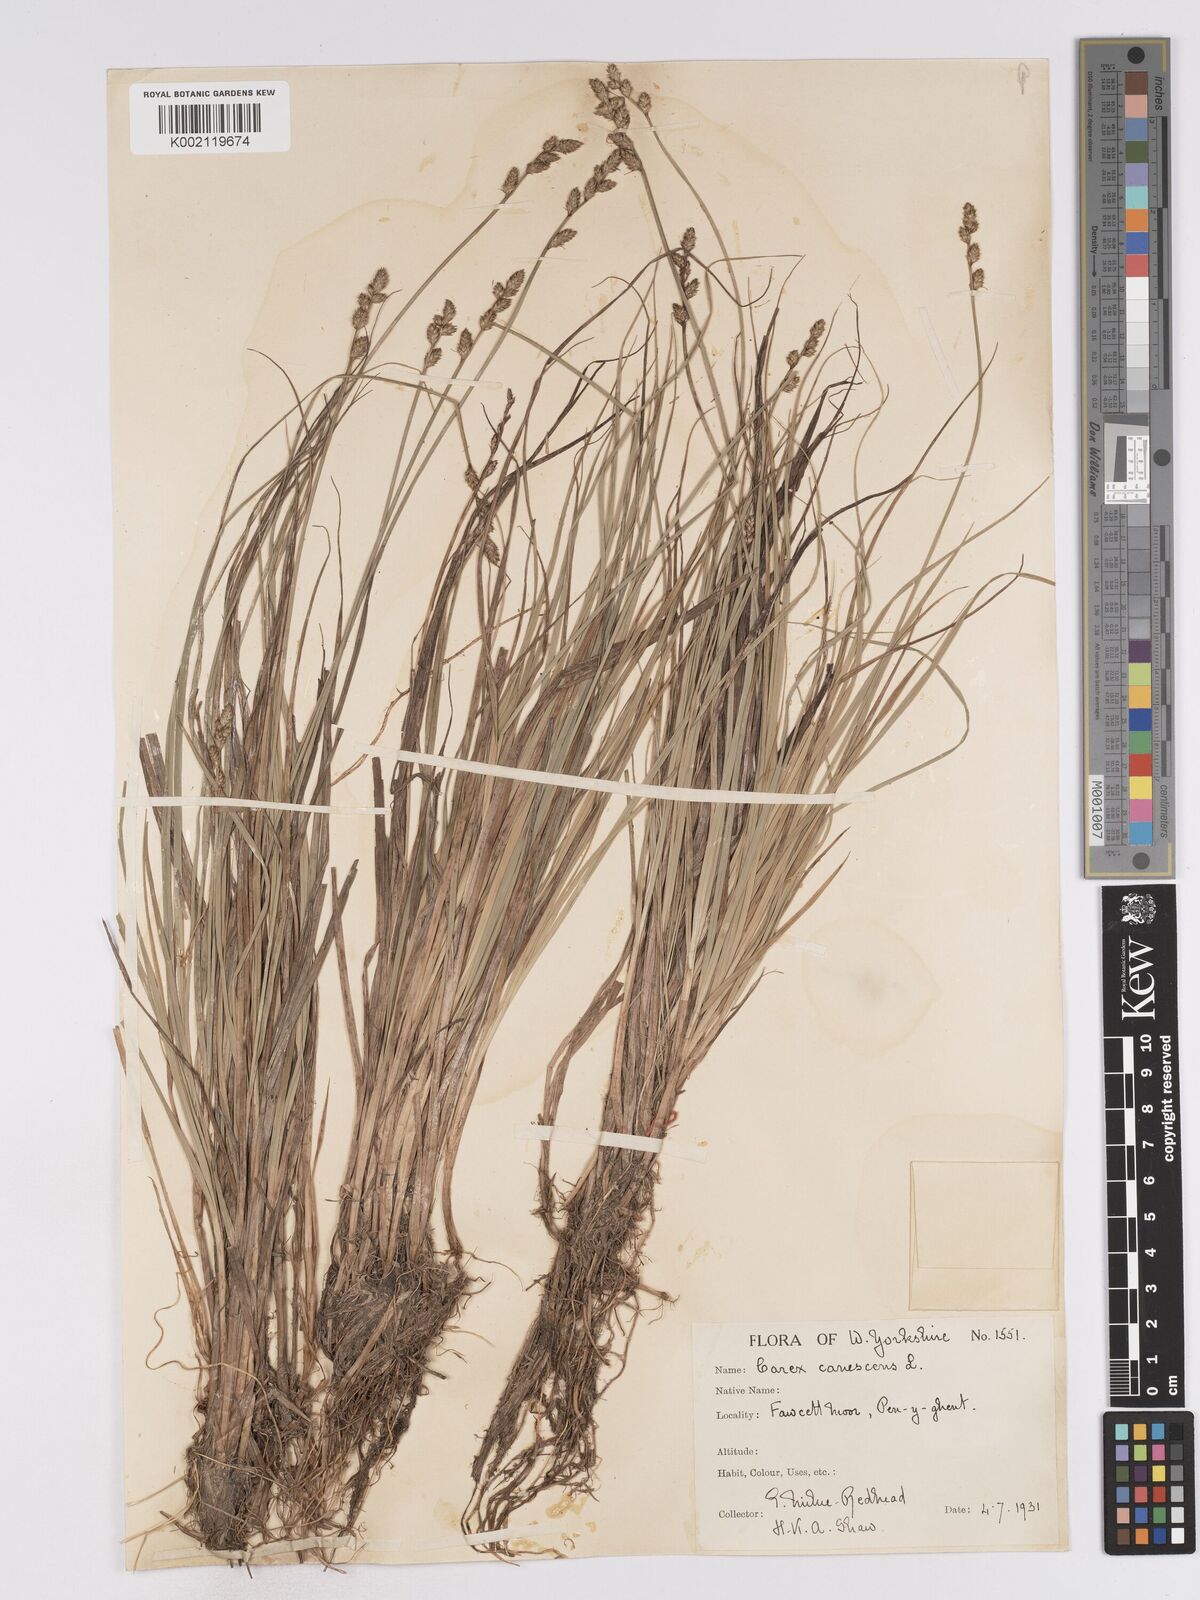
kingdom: Plantae
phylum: Tracheophyta
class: Liliopsida
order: Poales
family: Cyperaceae
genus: Carex
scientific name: Carex curta
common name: White sedge
